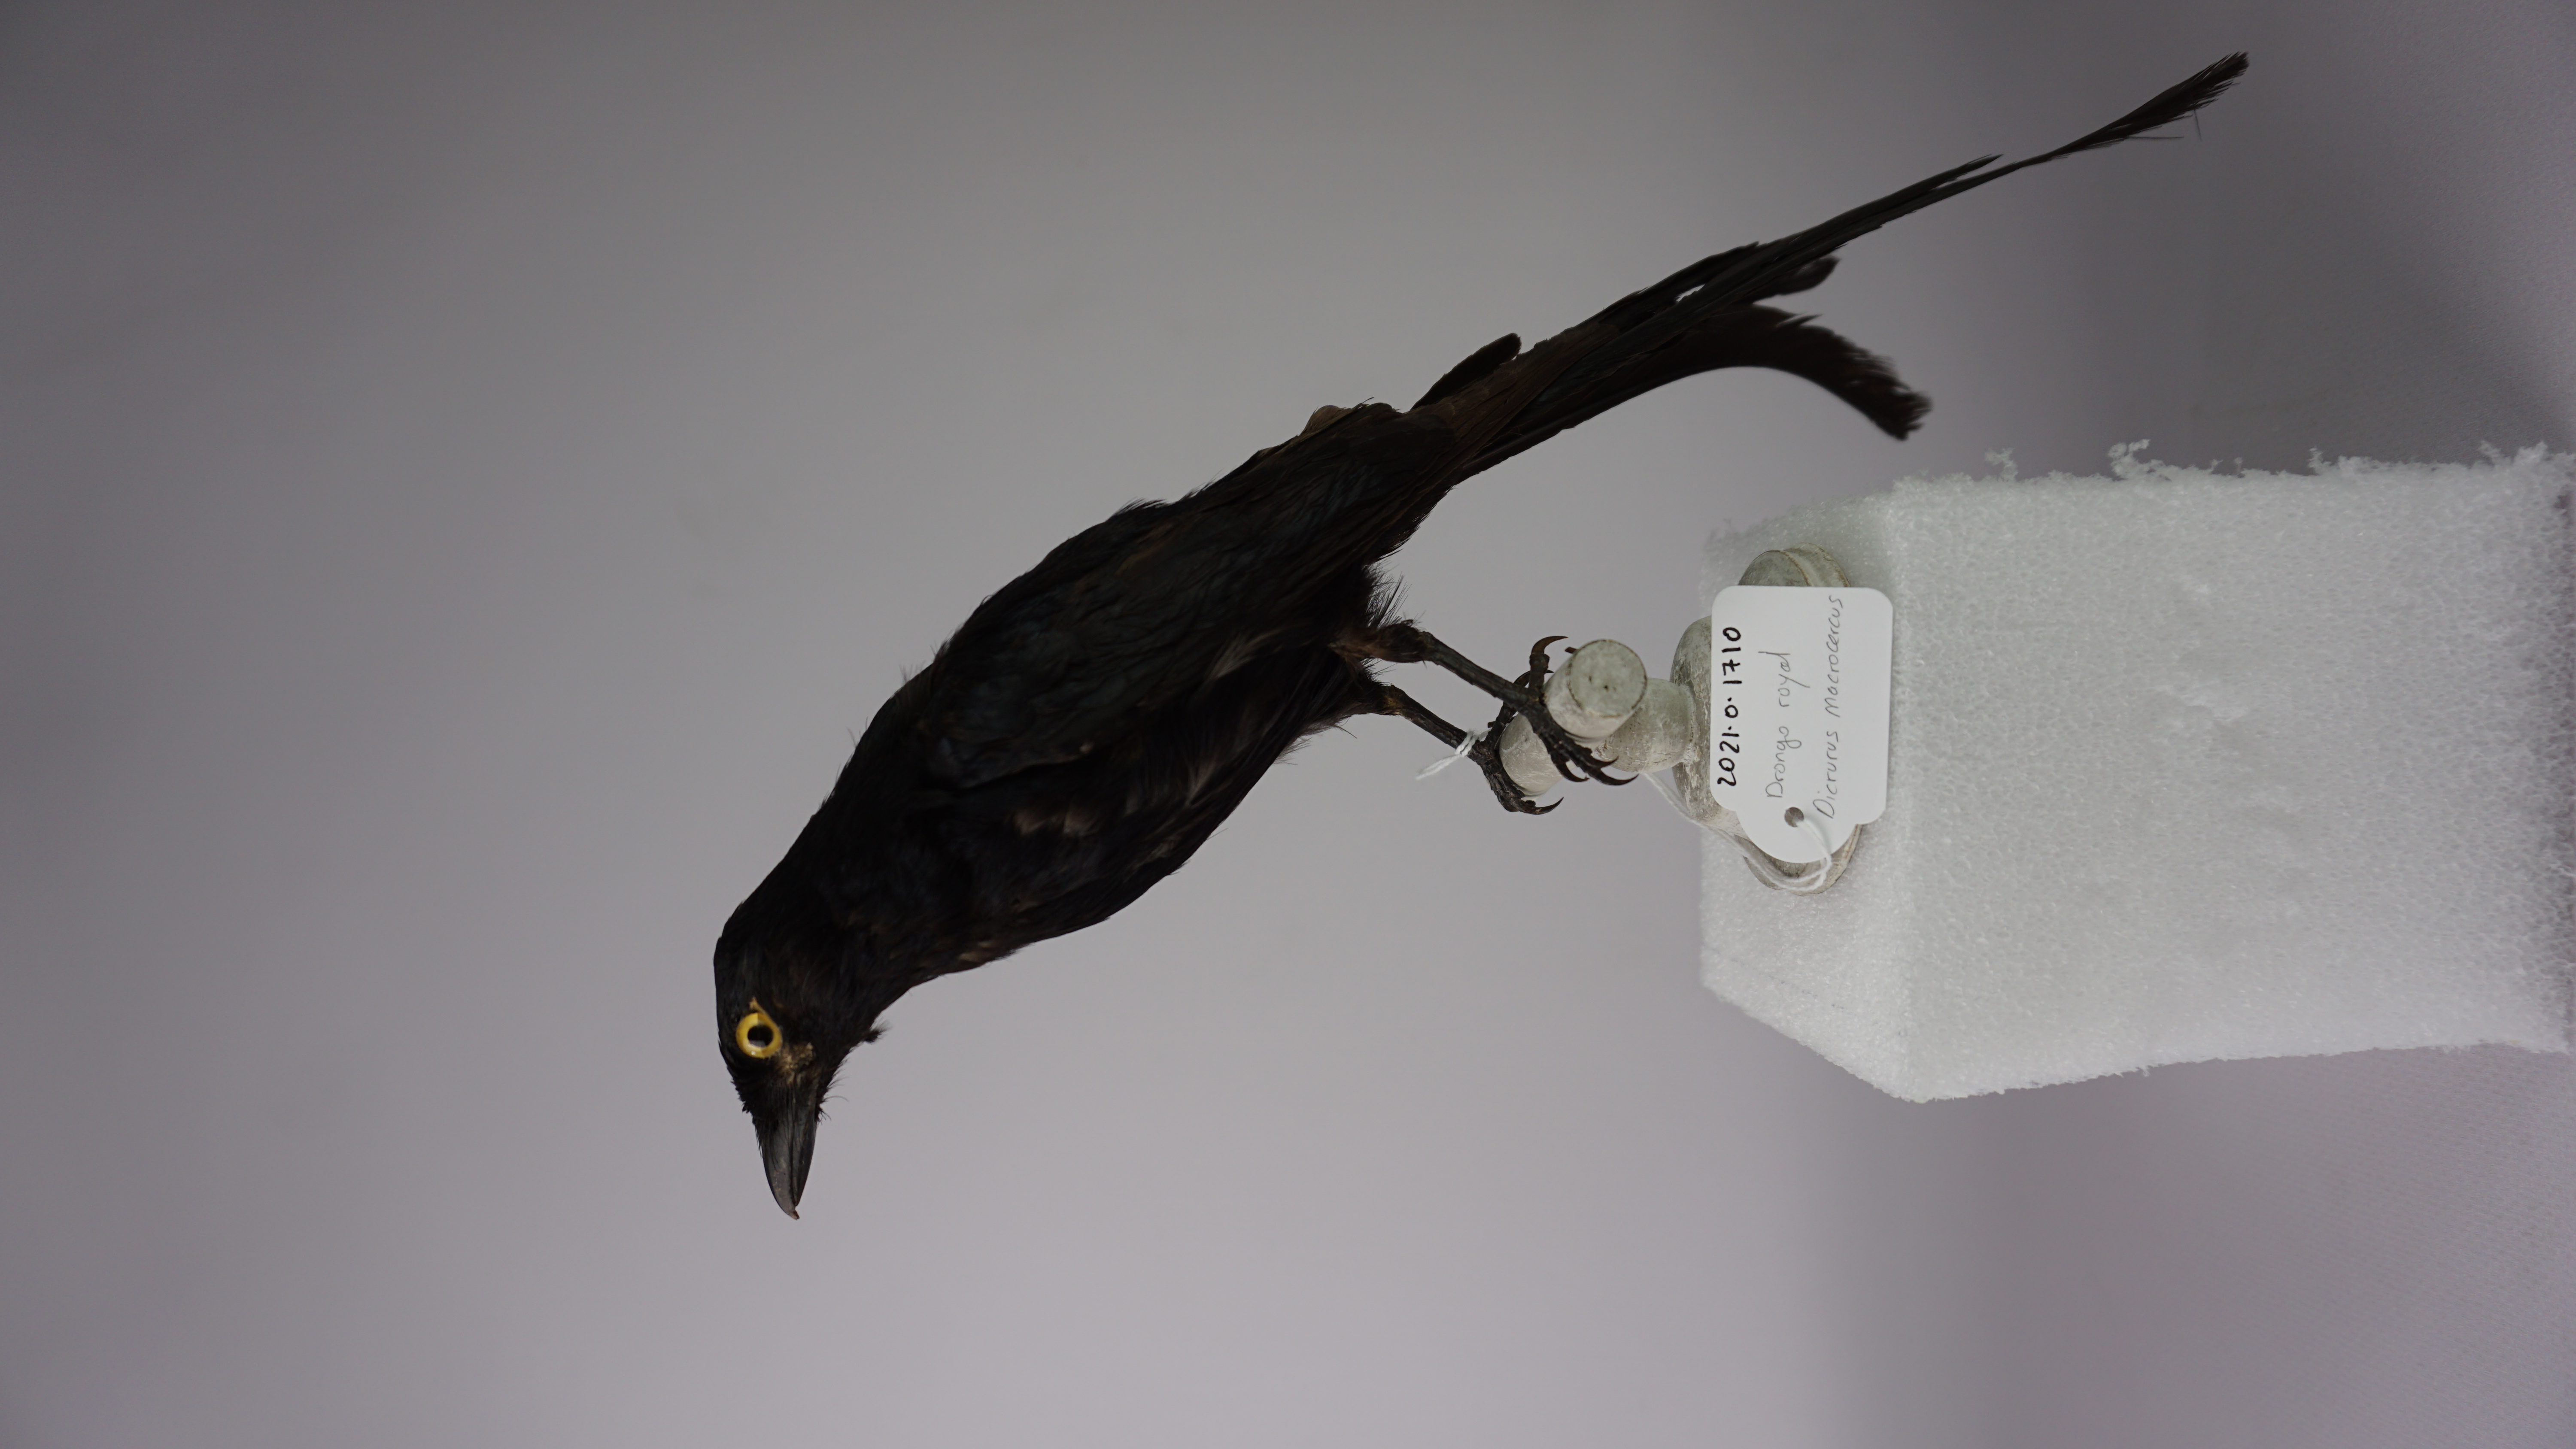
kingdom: Animalia
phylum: Chordata
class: Aves
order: Passeriformes
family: Dicruridae
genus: Dicrurus
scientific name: Dicrurus macrocercus
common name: Black drongo
